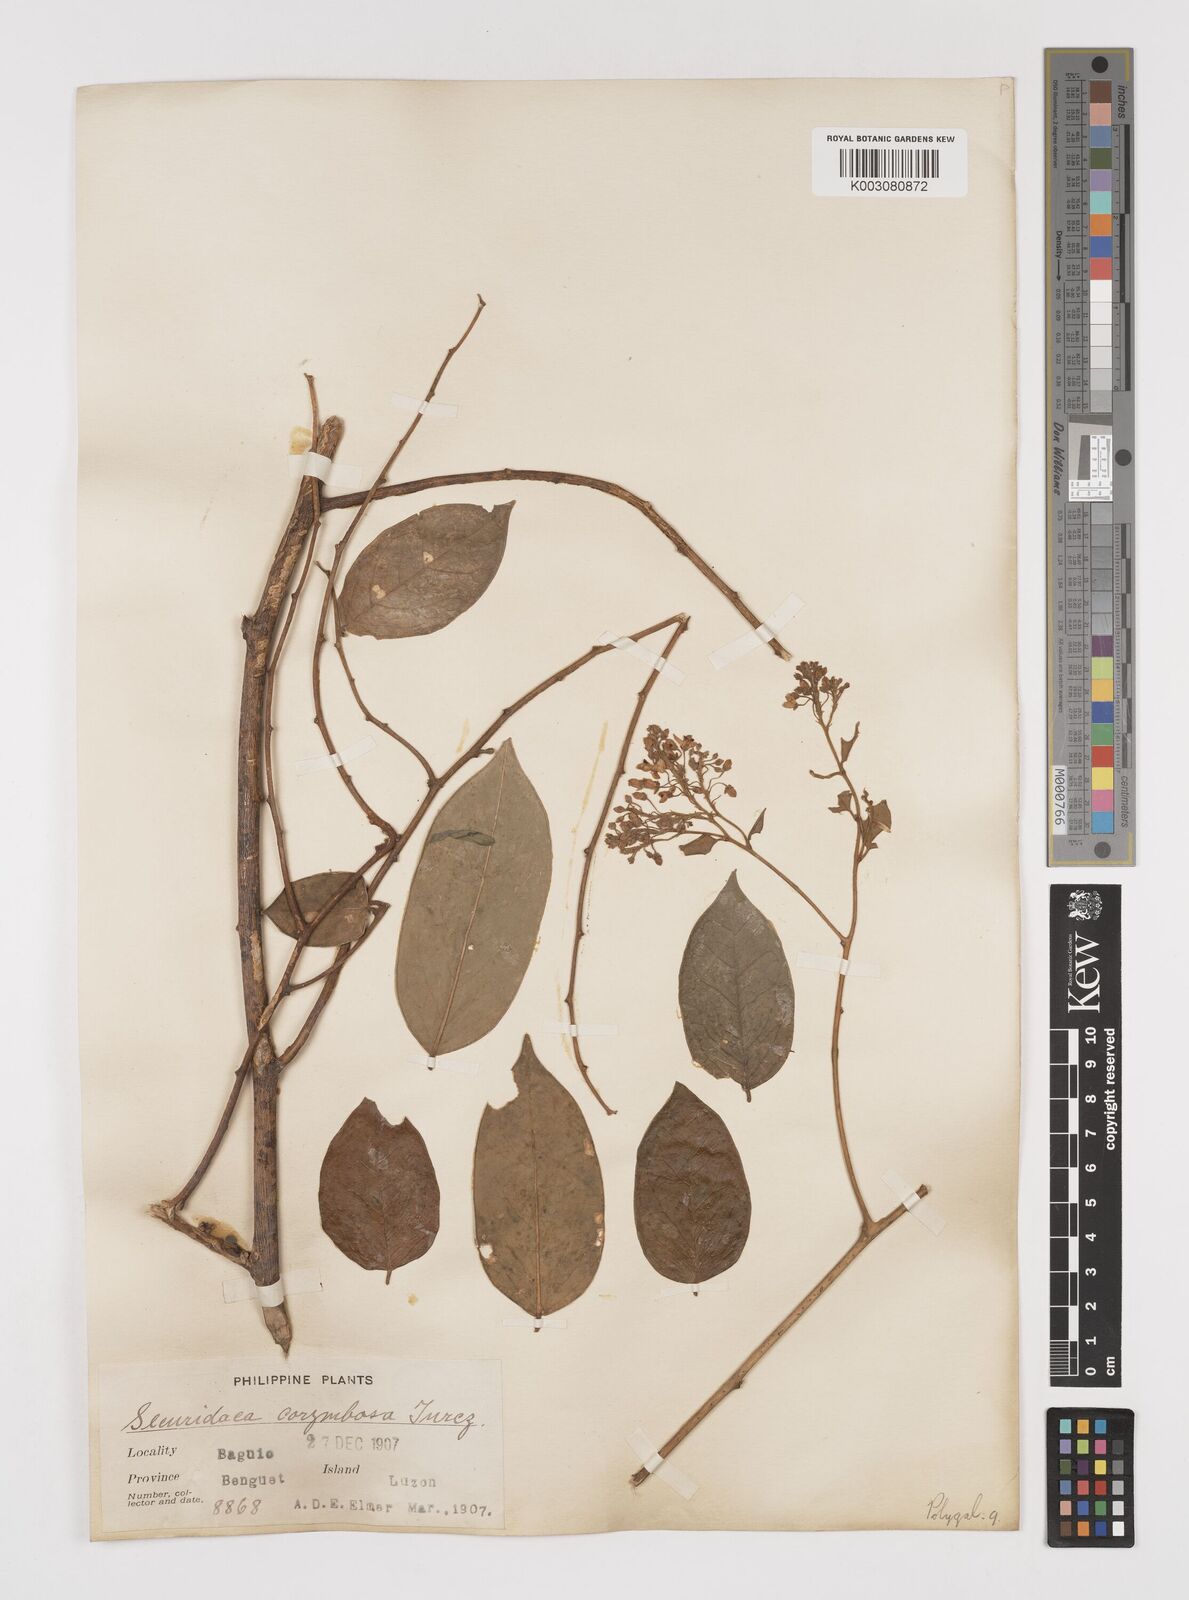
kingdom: Plantae
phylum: Tracheophyta
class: Magnoliopsida
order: Fabales
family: Polygalaceae
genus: Securidaca
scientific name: Securidaca inappendiculata
